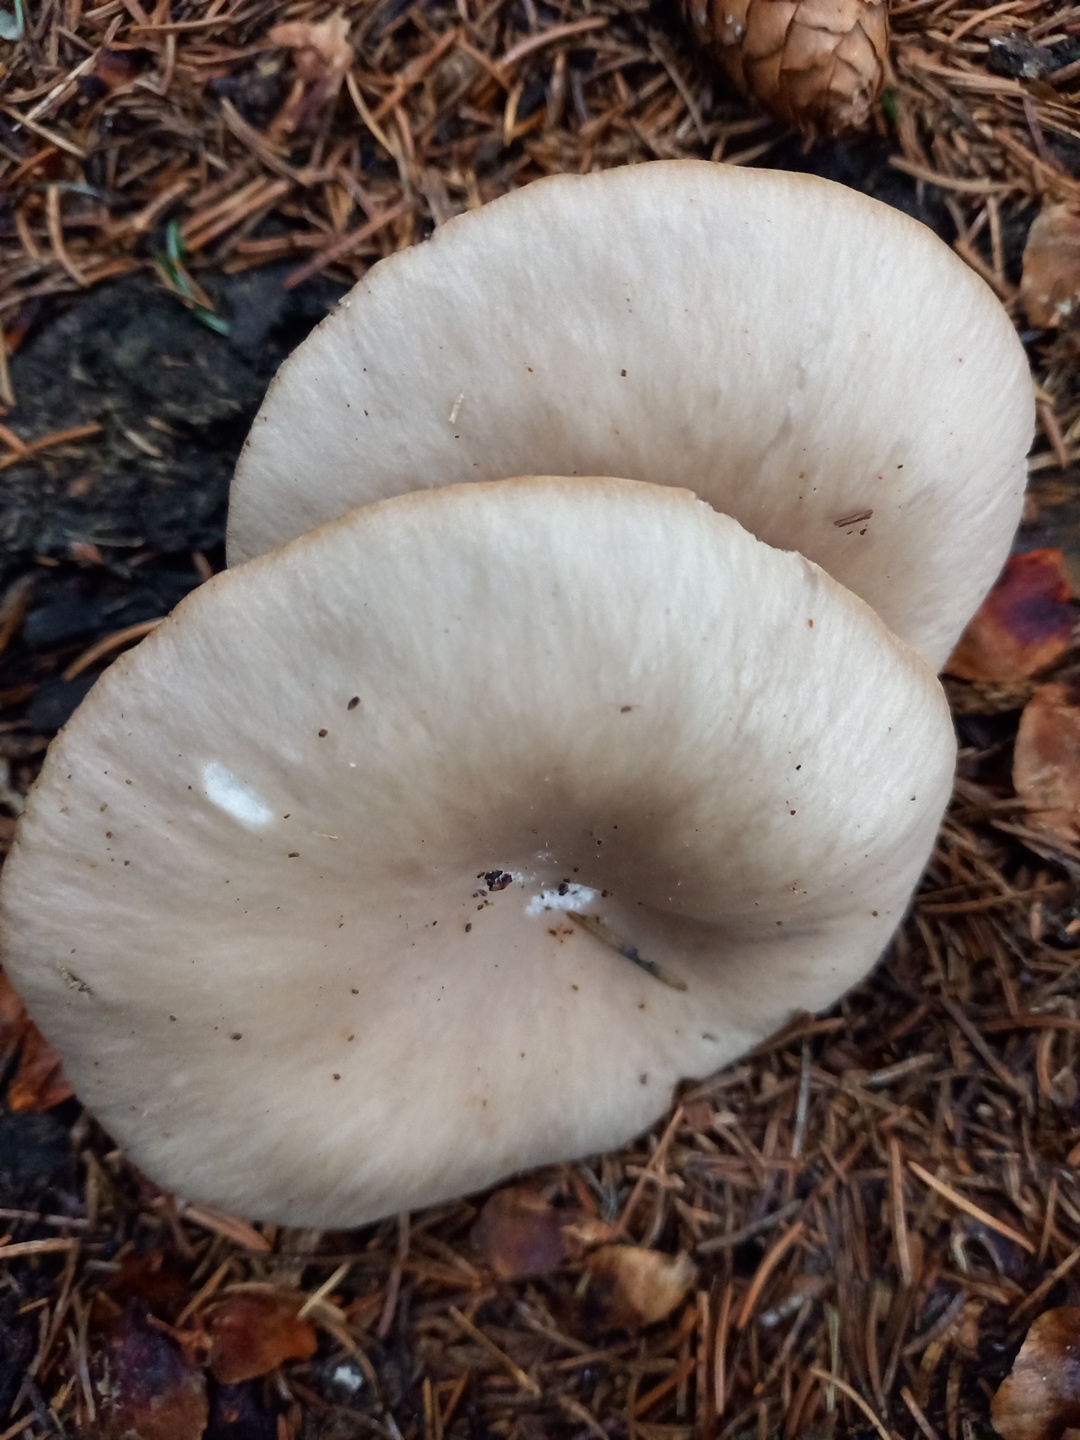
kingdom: Fungi
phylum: Basidiomycota
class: Agaricomycetes
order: Agaricales
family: Pleurotaceae
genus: Pleurotus
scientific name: Pleurotus ostreatus
